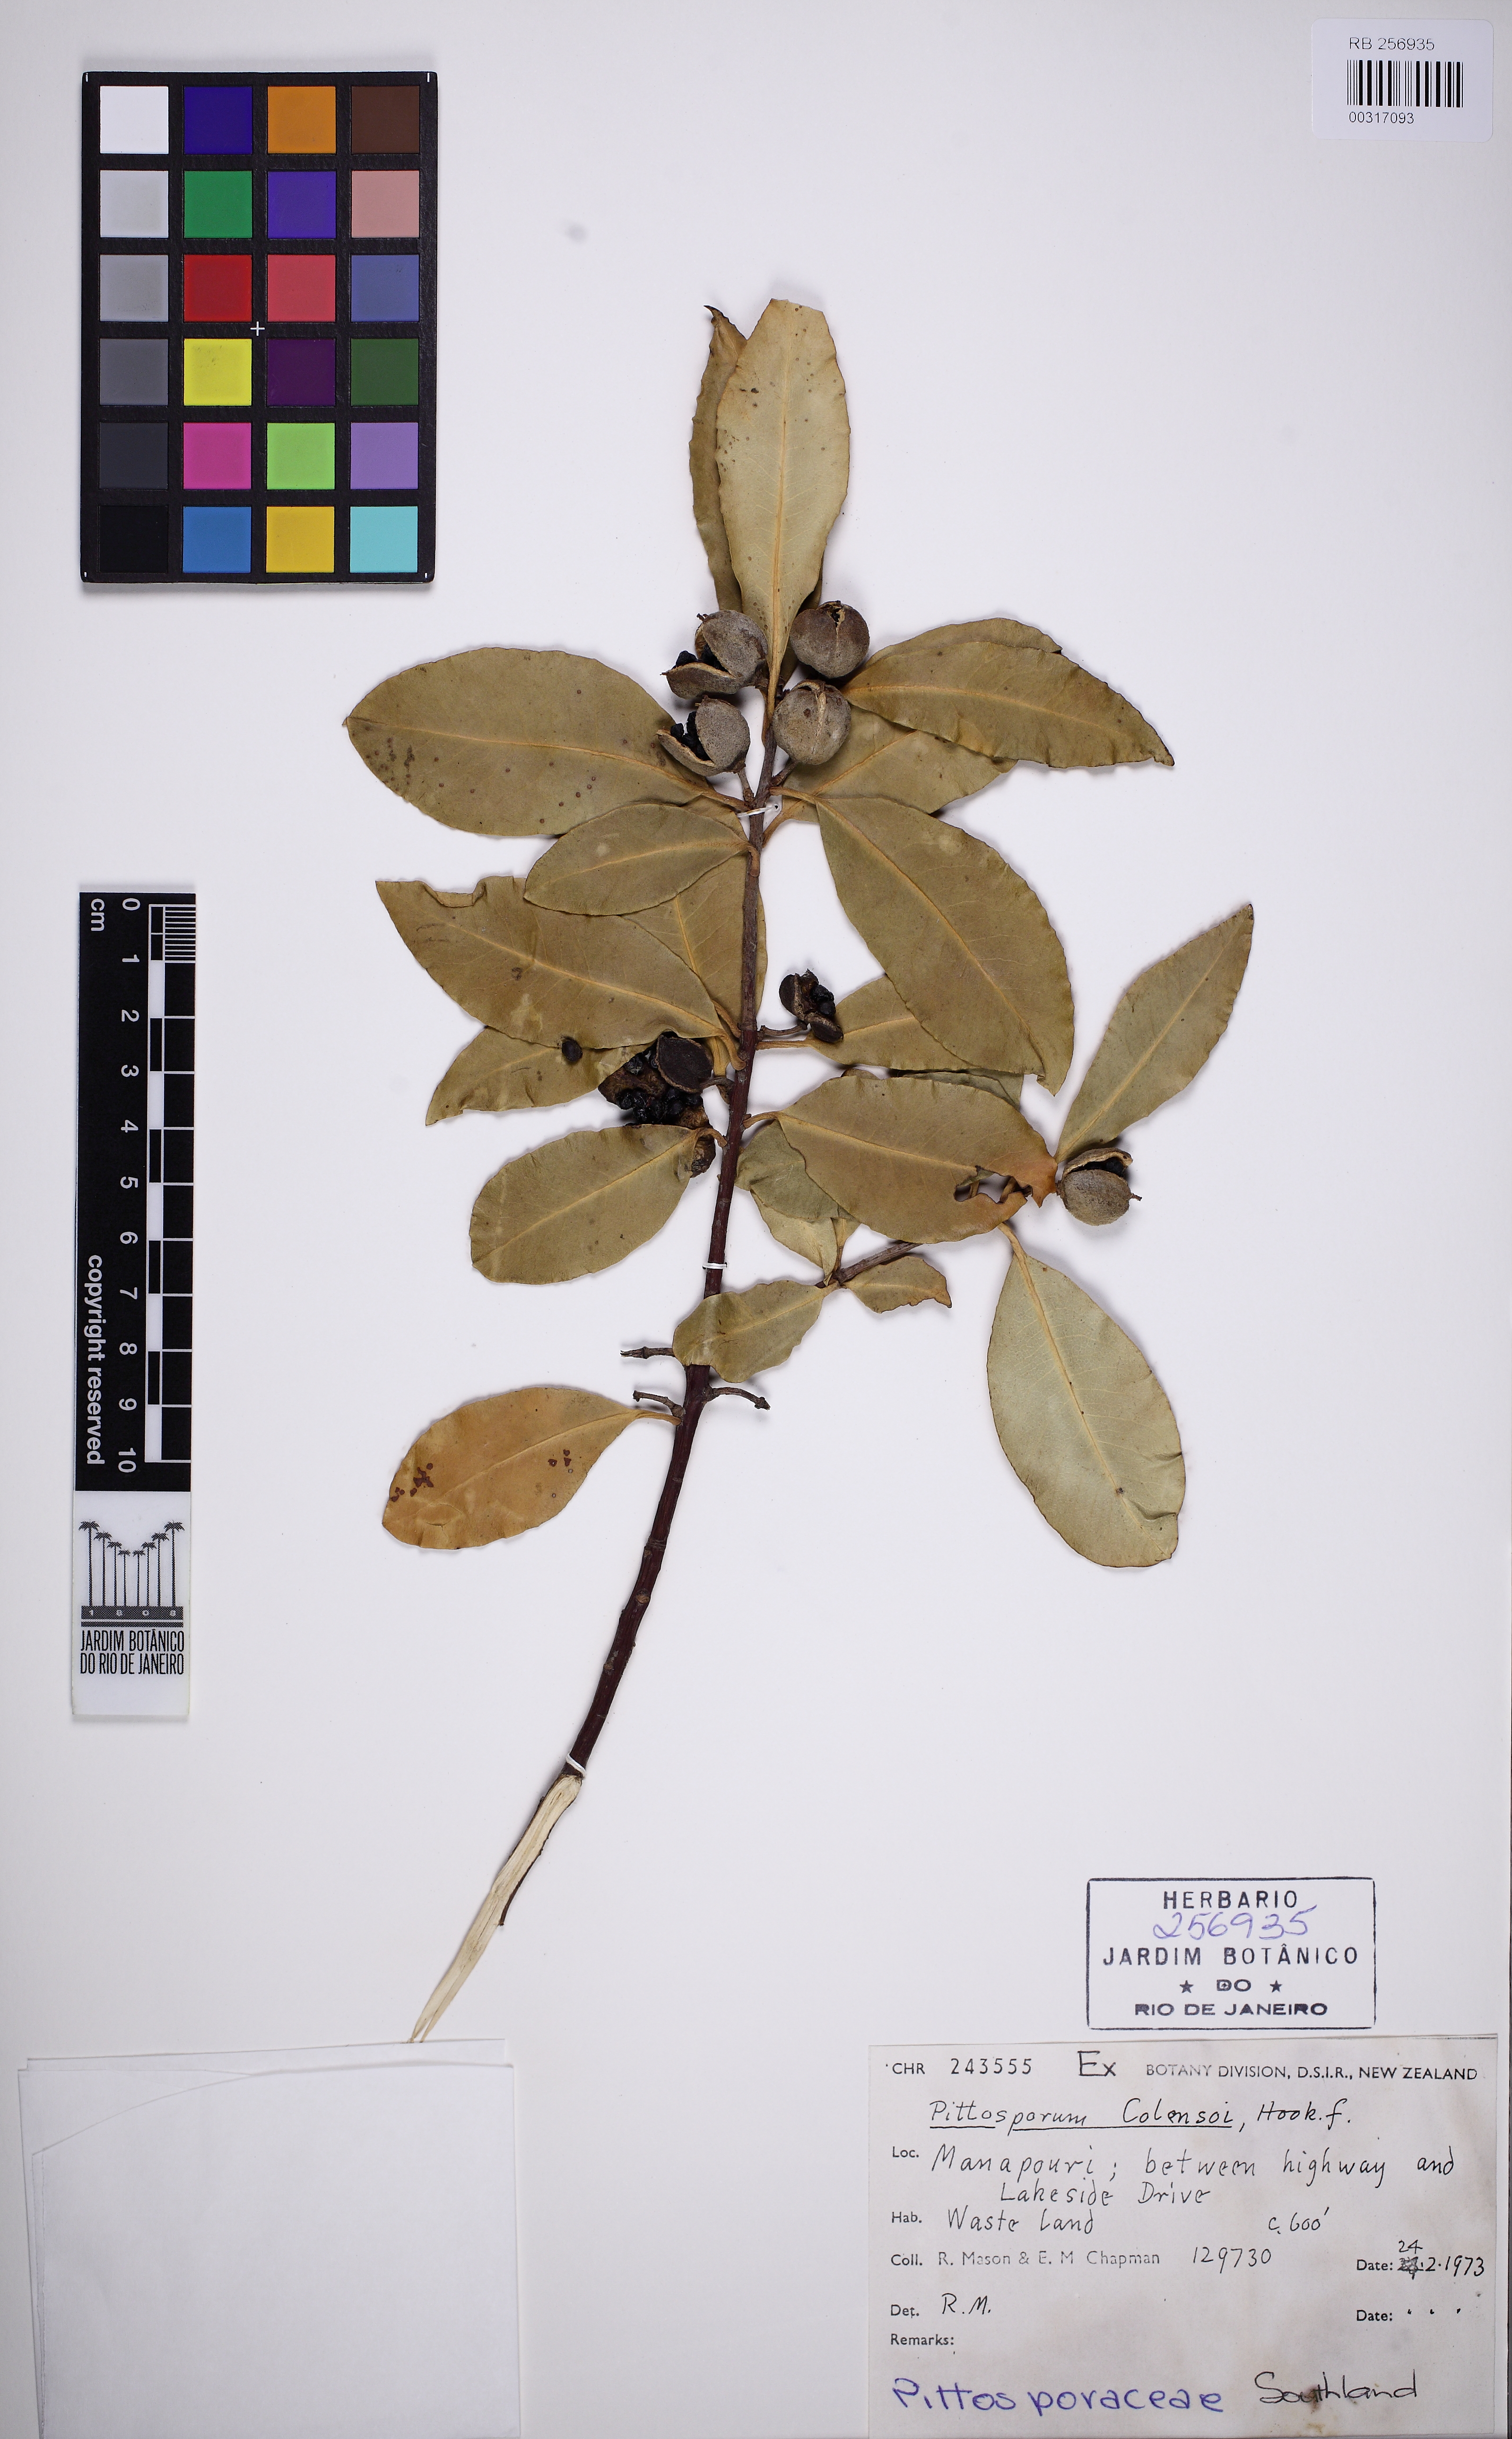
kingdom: Plantae
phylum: Tracheophyta
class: Magnoliopsida
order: Apiales
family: Pittosporaceae
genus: Pittosporum
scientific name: Pittosporum colensoi
